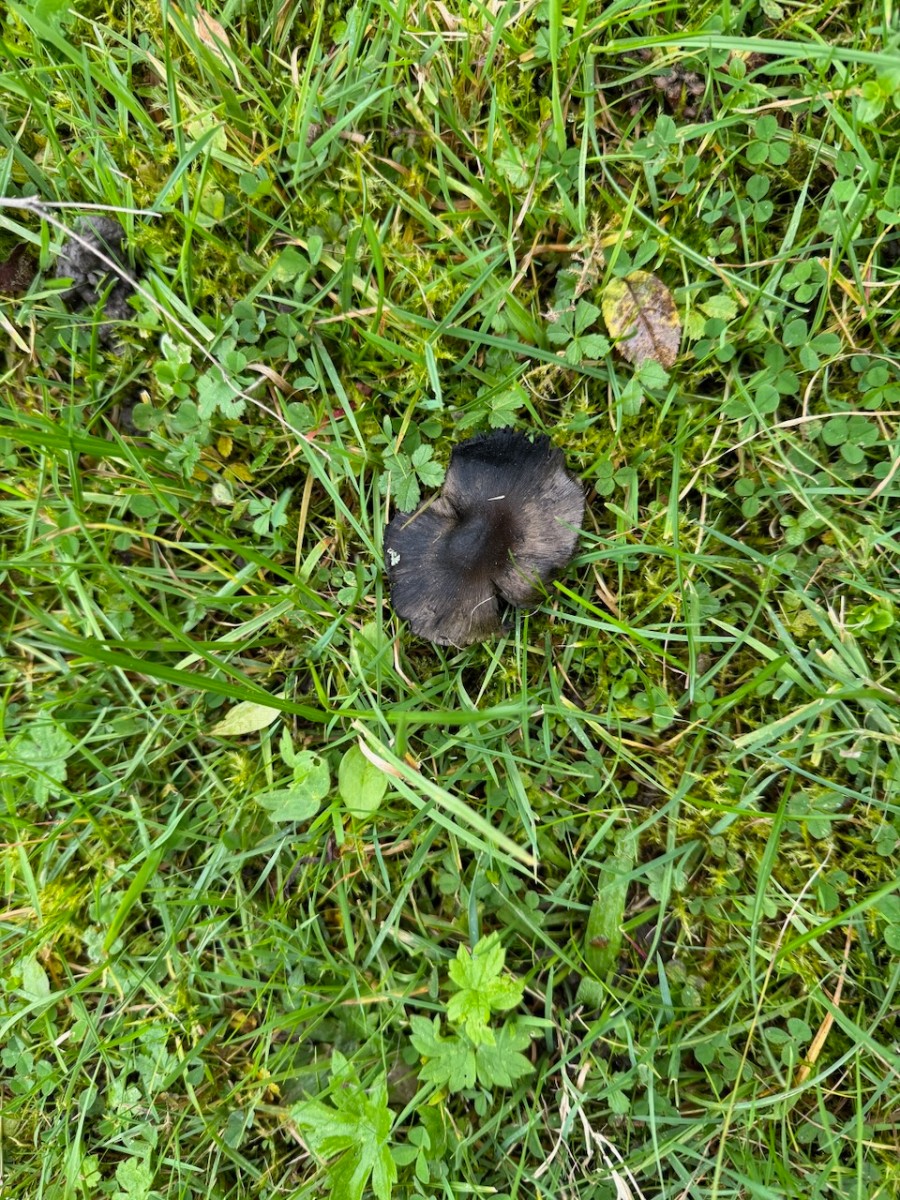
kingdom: Fungi
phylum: Basidiomycota
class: Agaricomycetes
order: Agaricales
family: Hygrophoraceae
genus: Hygrocybe
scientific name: Hygrocybe conica
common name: kegle-vokshat
